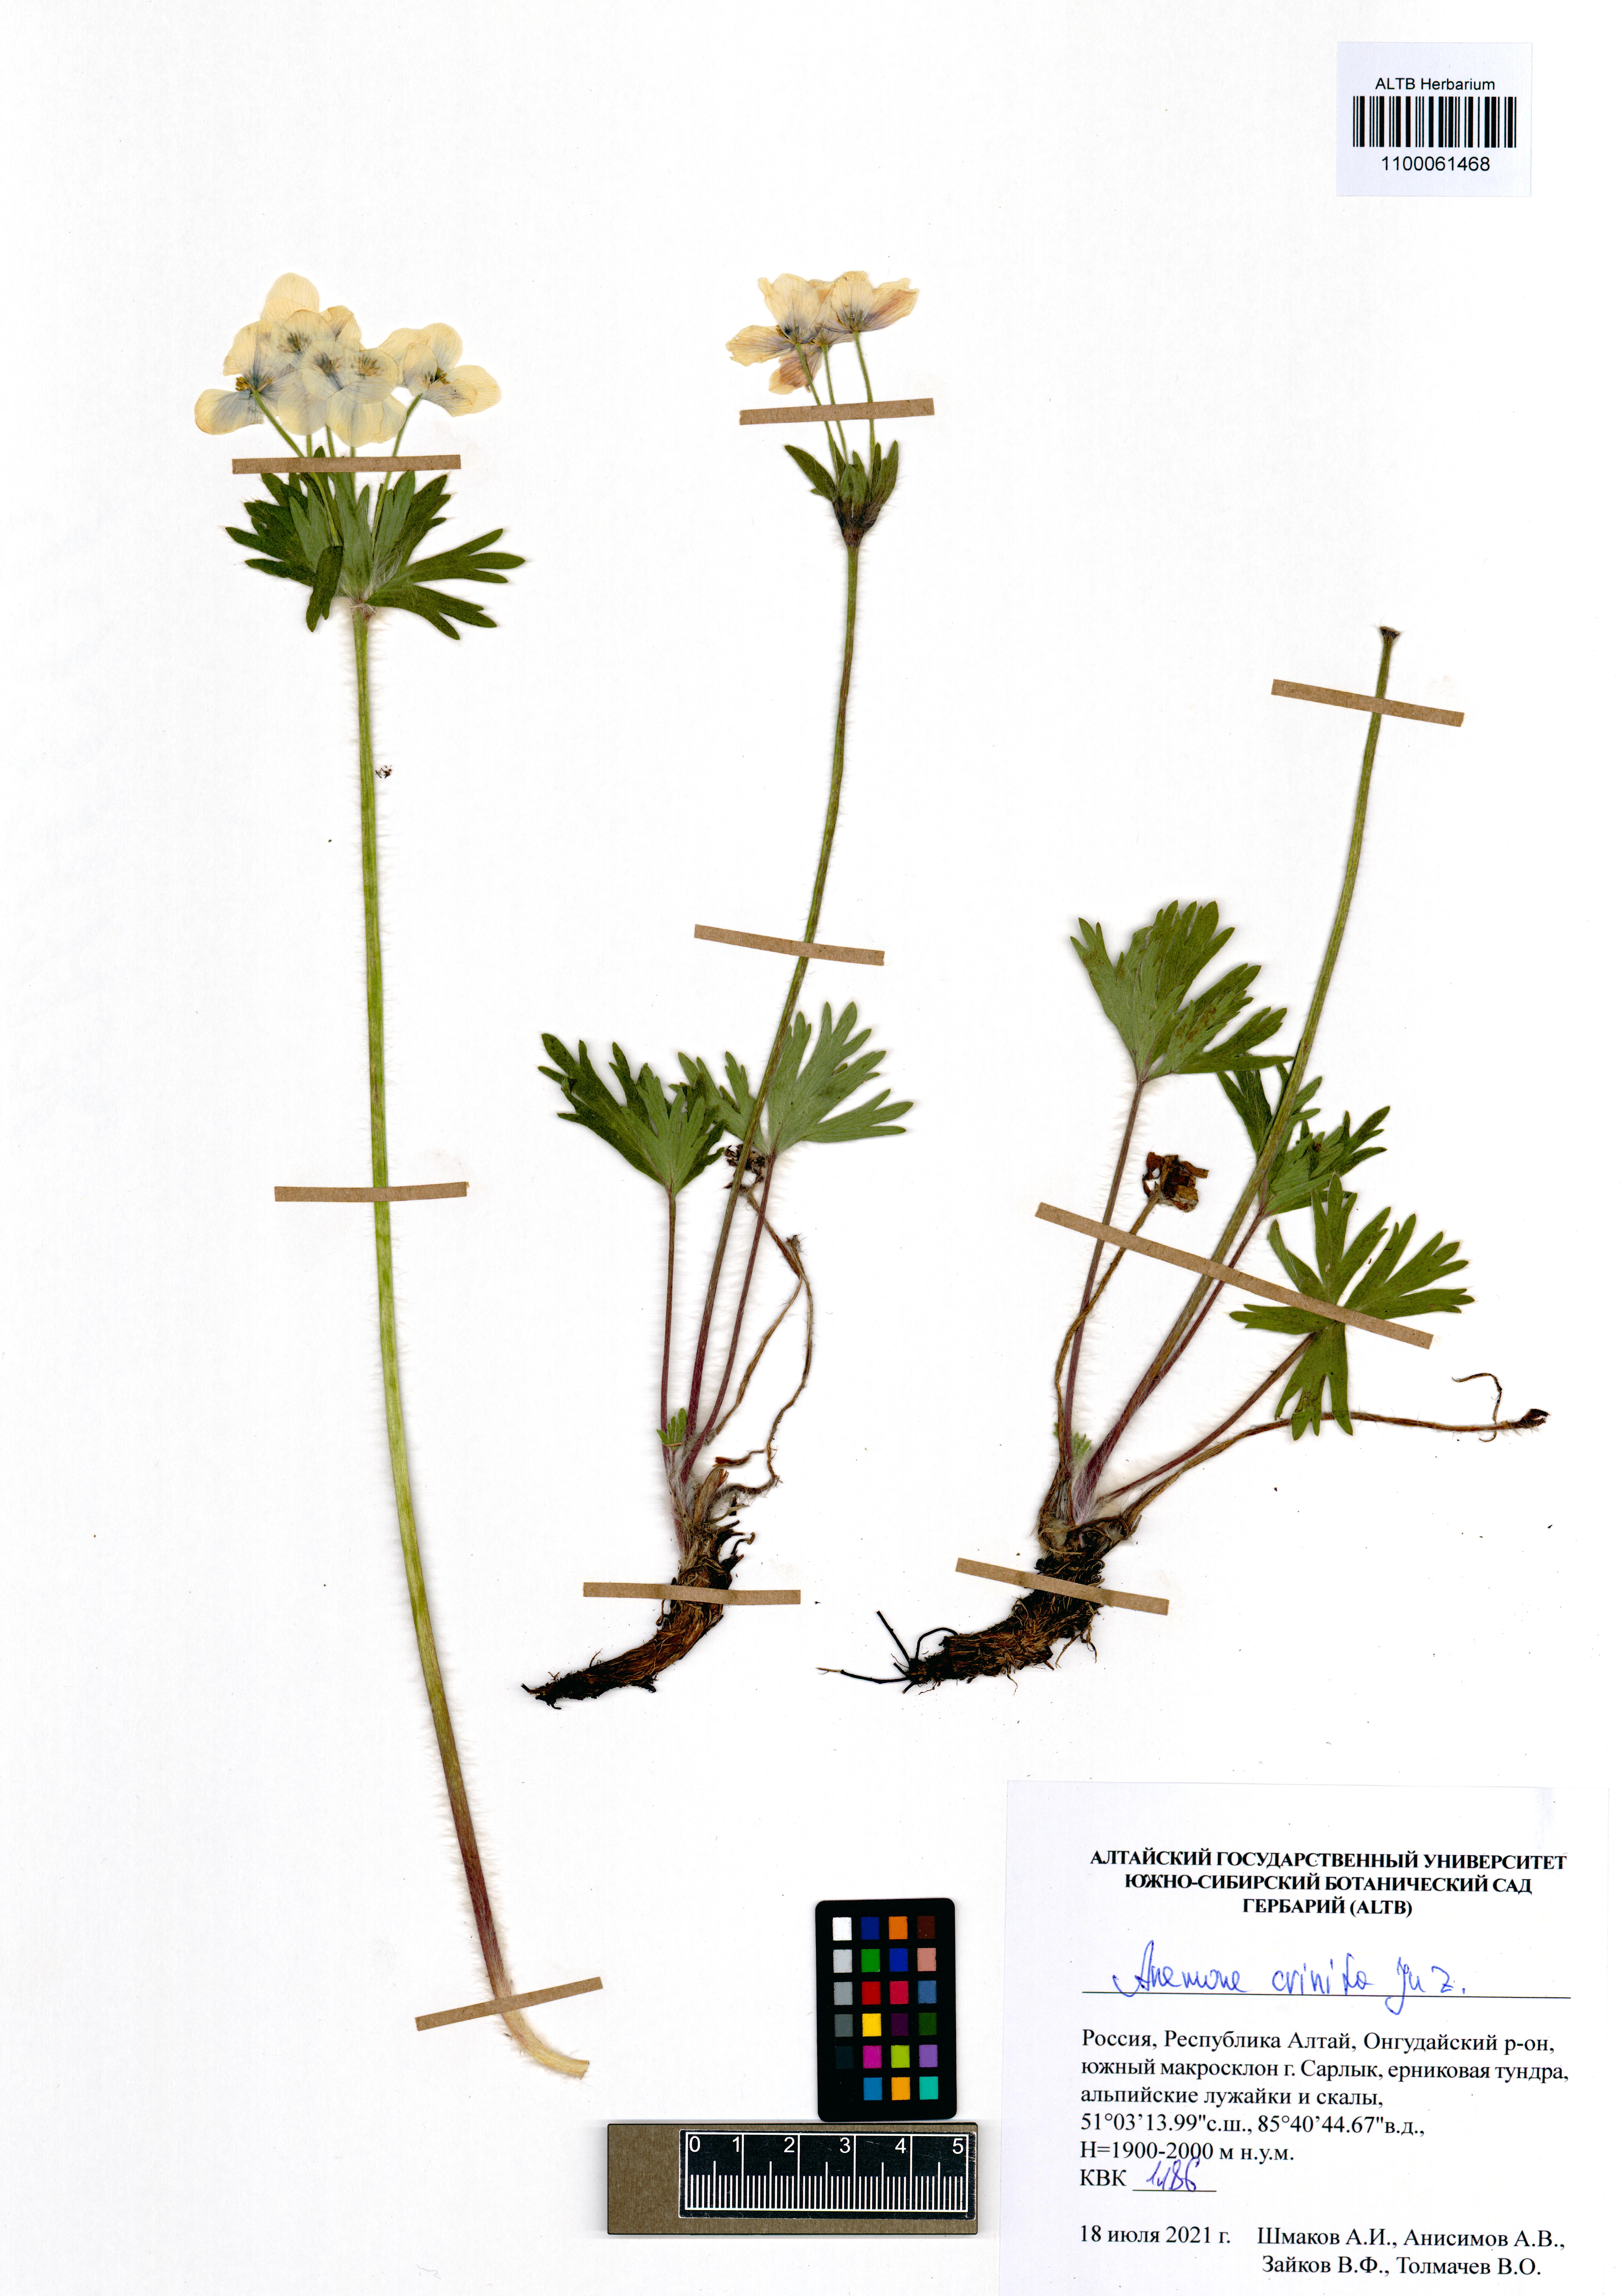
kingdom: Plantae
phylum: Tracheophyta
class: Magnoliopsida
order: Ranunculales
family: Ranunculaceae
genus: Anemonastrum
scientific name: Anemonastrum narcissiflorum
